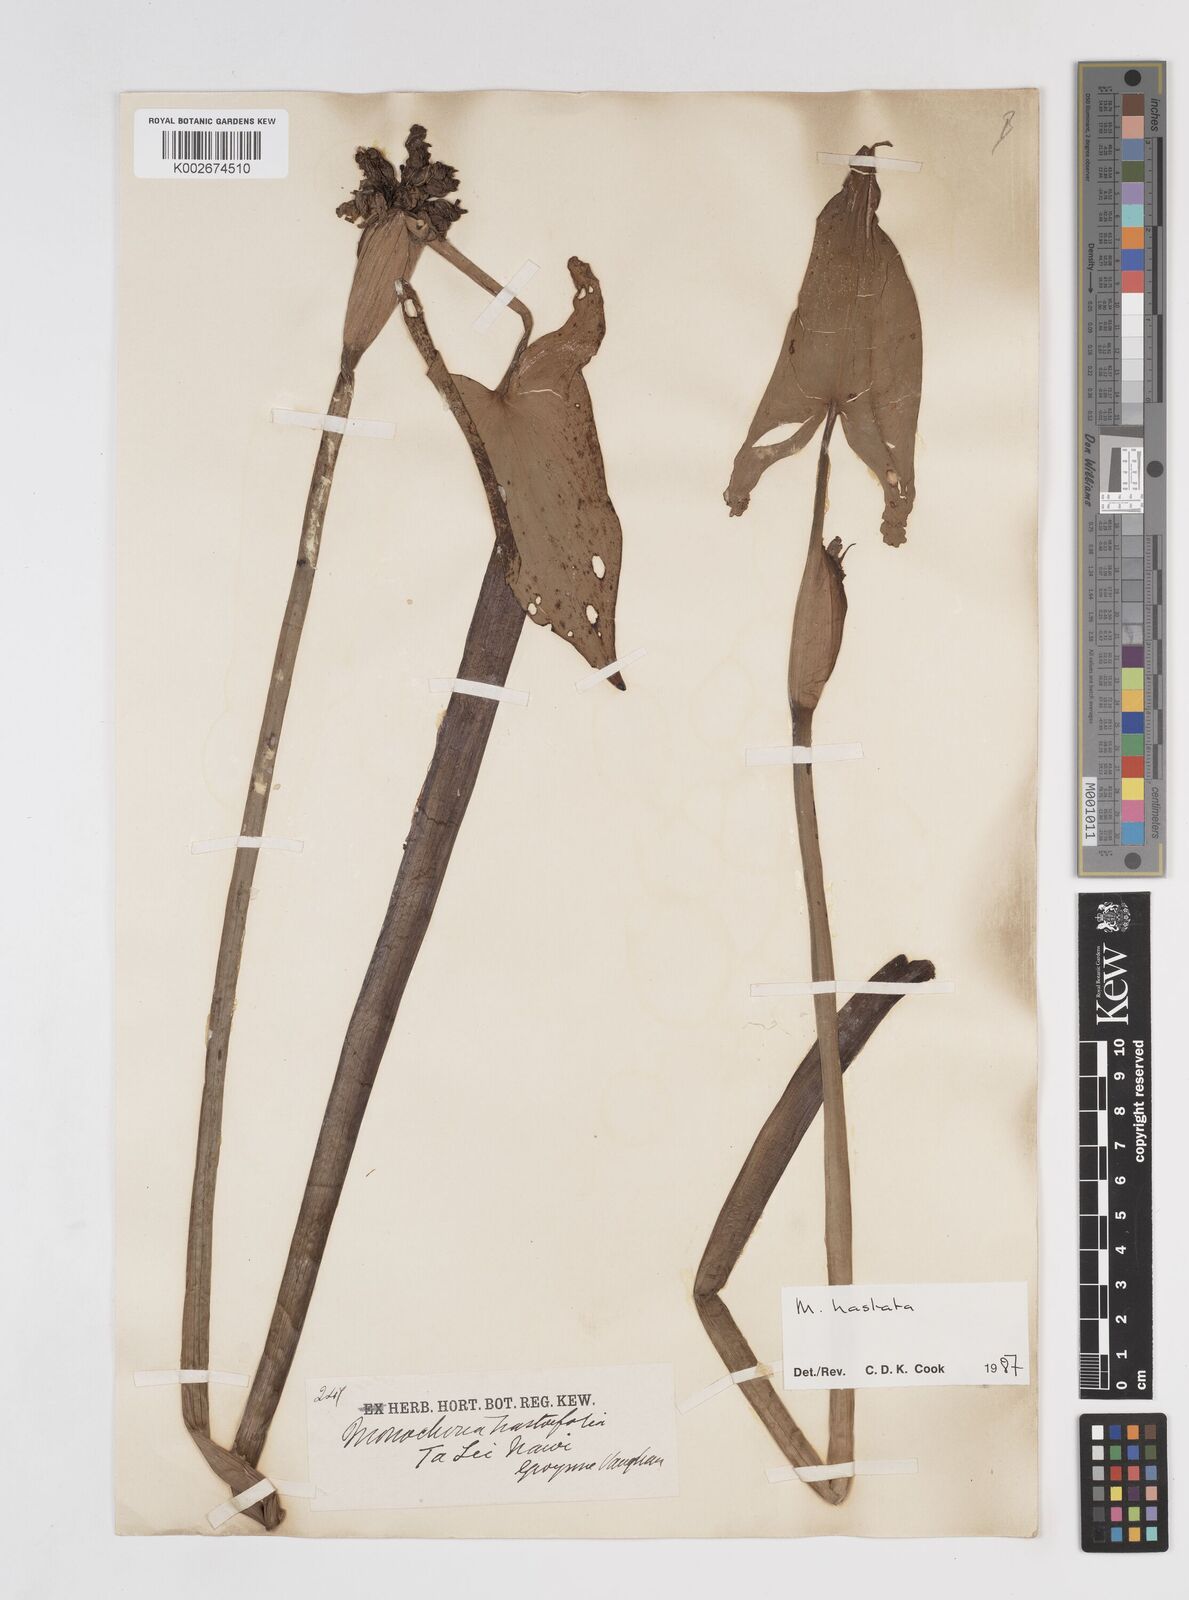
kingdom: Plantae
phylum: Tracheophyta
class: Liliopsida
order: Commelinales
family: Pontederiaceae
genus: Pontederia
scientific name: Pontederia vaginalis
